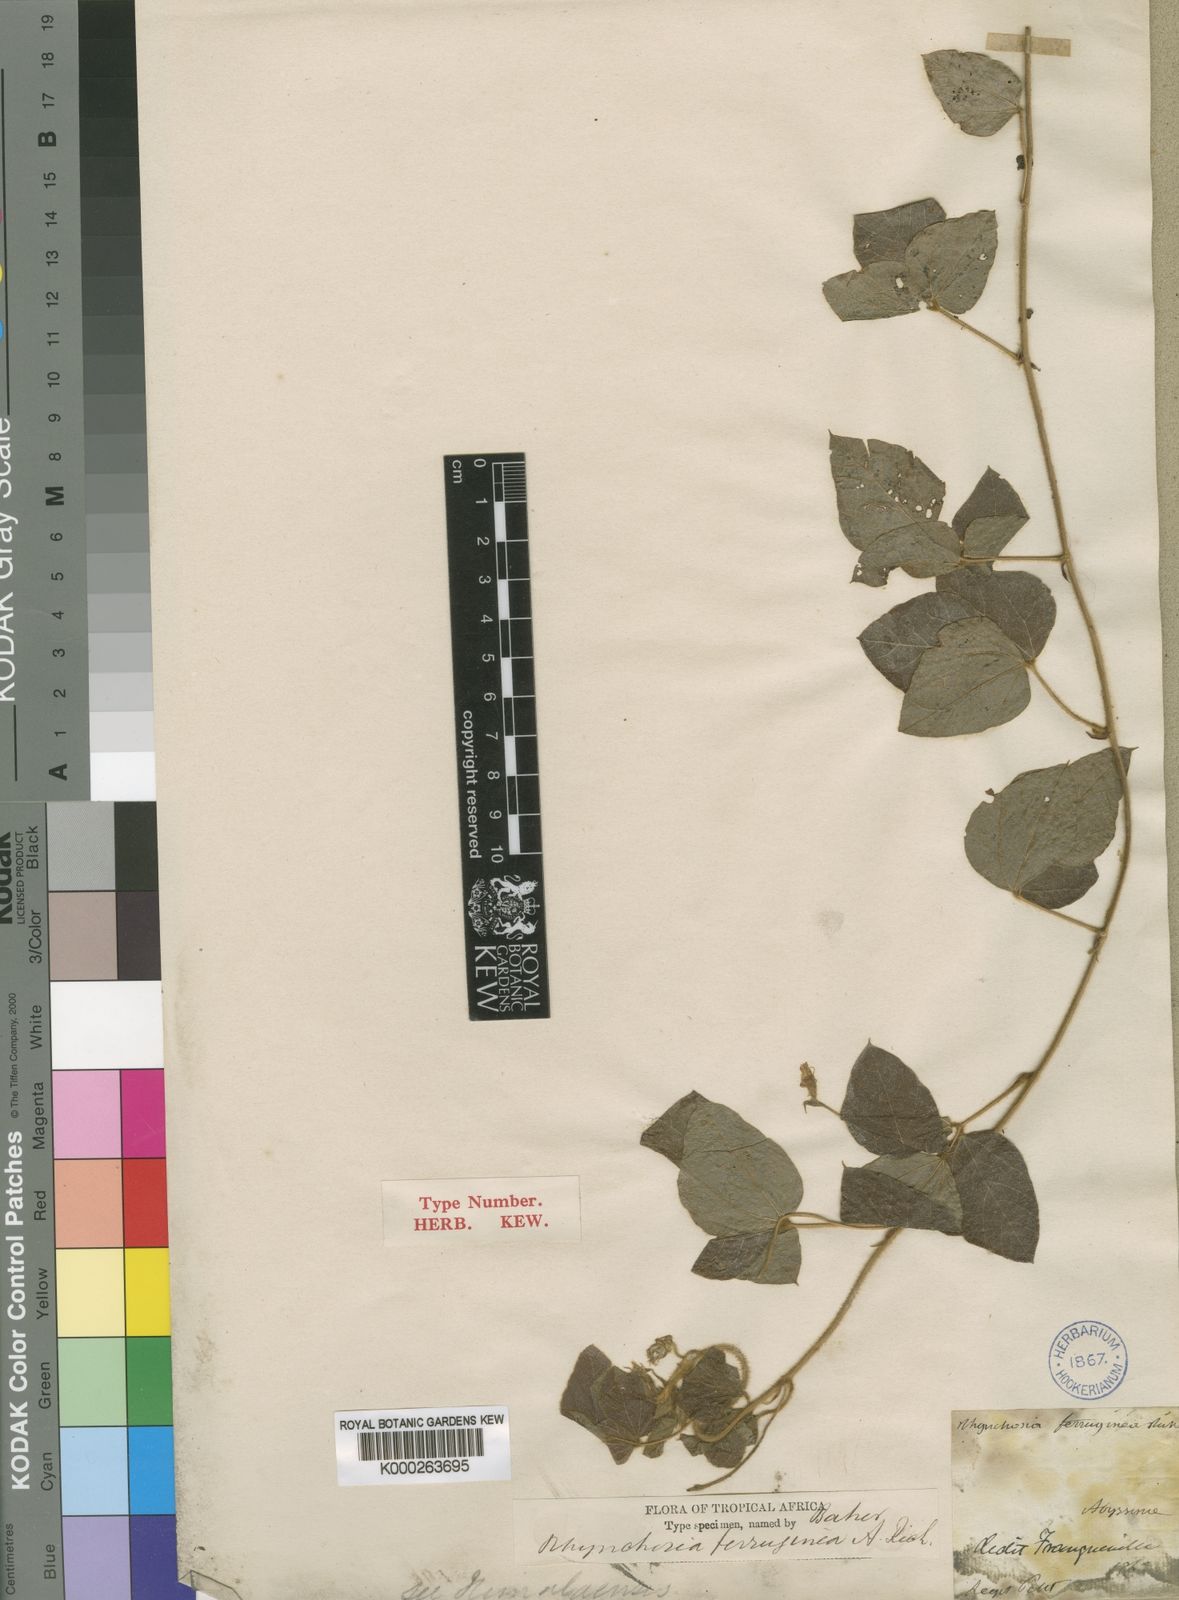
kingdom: Plantae
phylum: Tracheophyta
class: Magnoliopsida
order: Fabales
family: Fabaceae
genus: Rhynchosia
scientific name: Rhynchosia ferruginea
